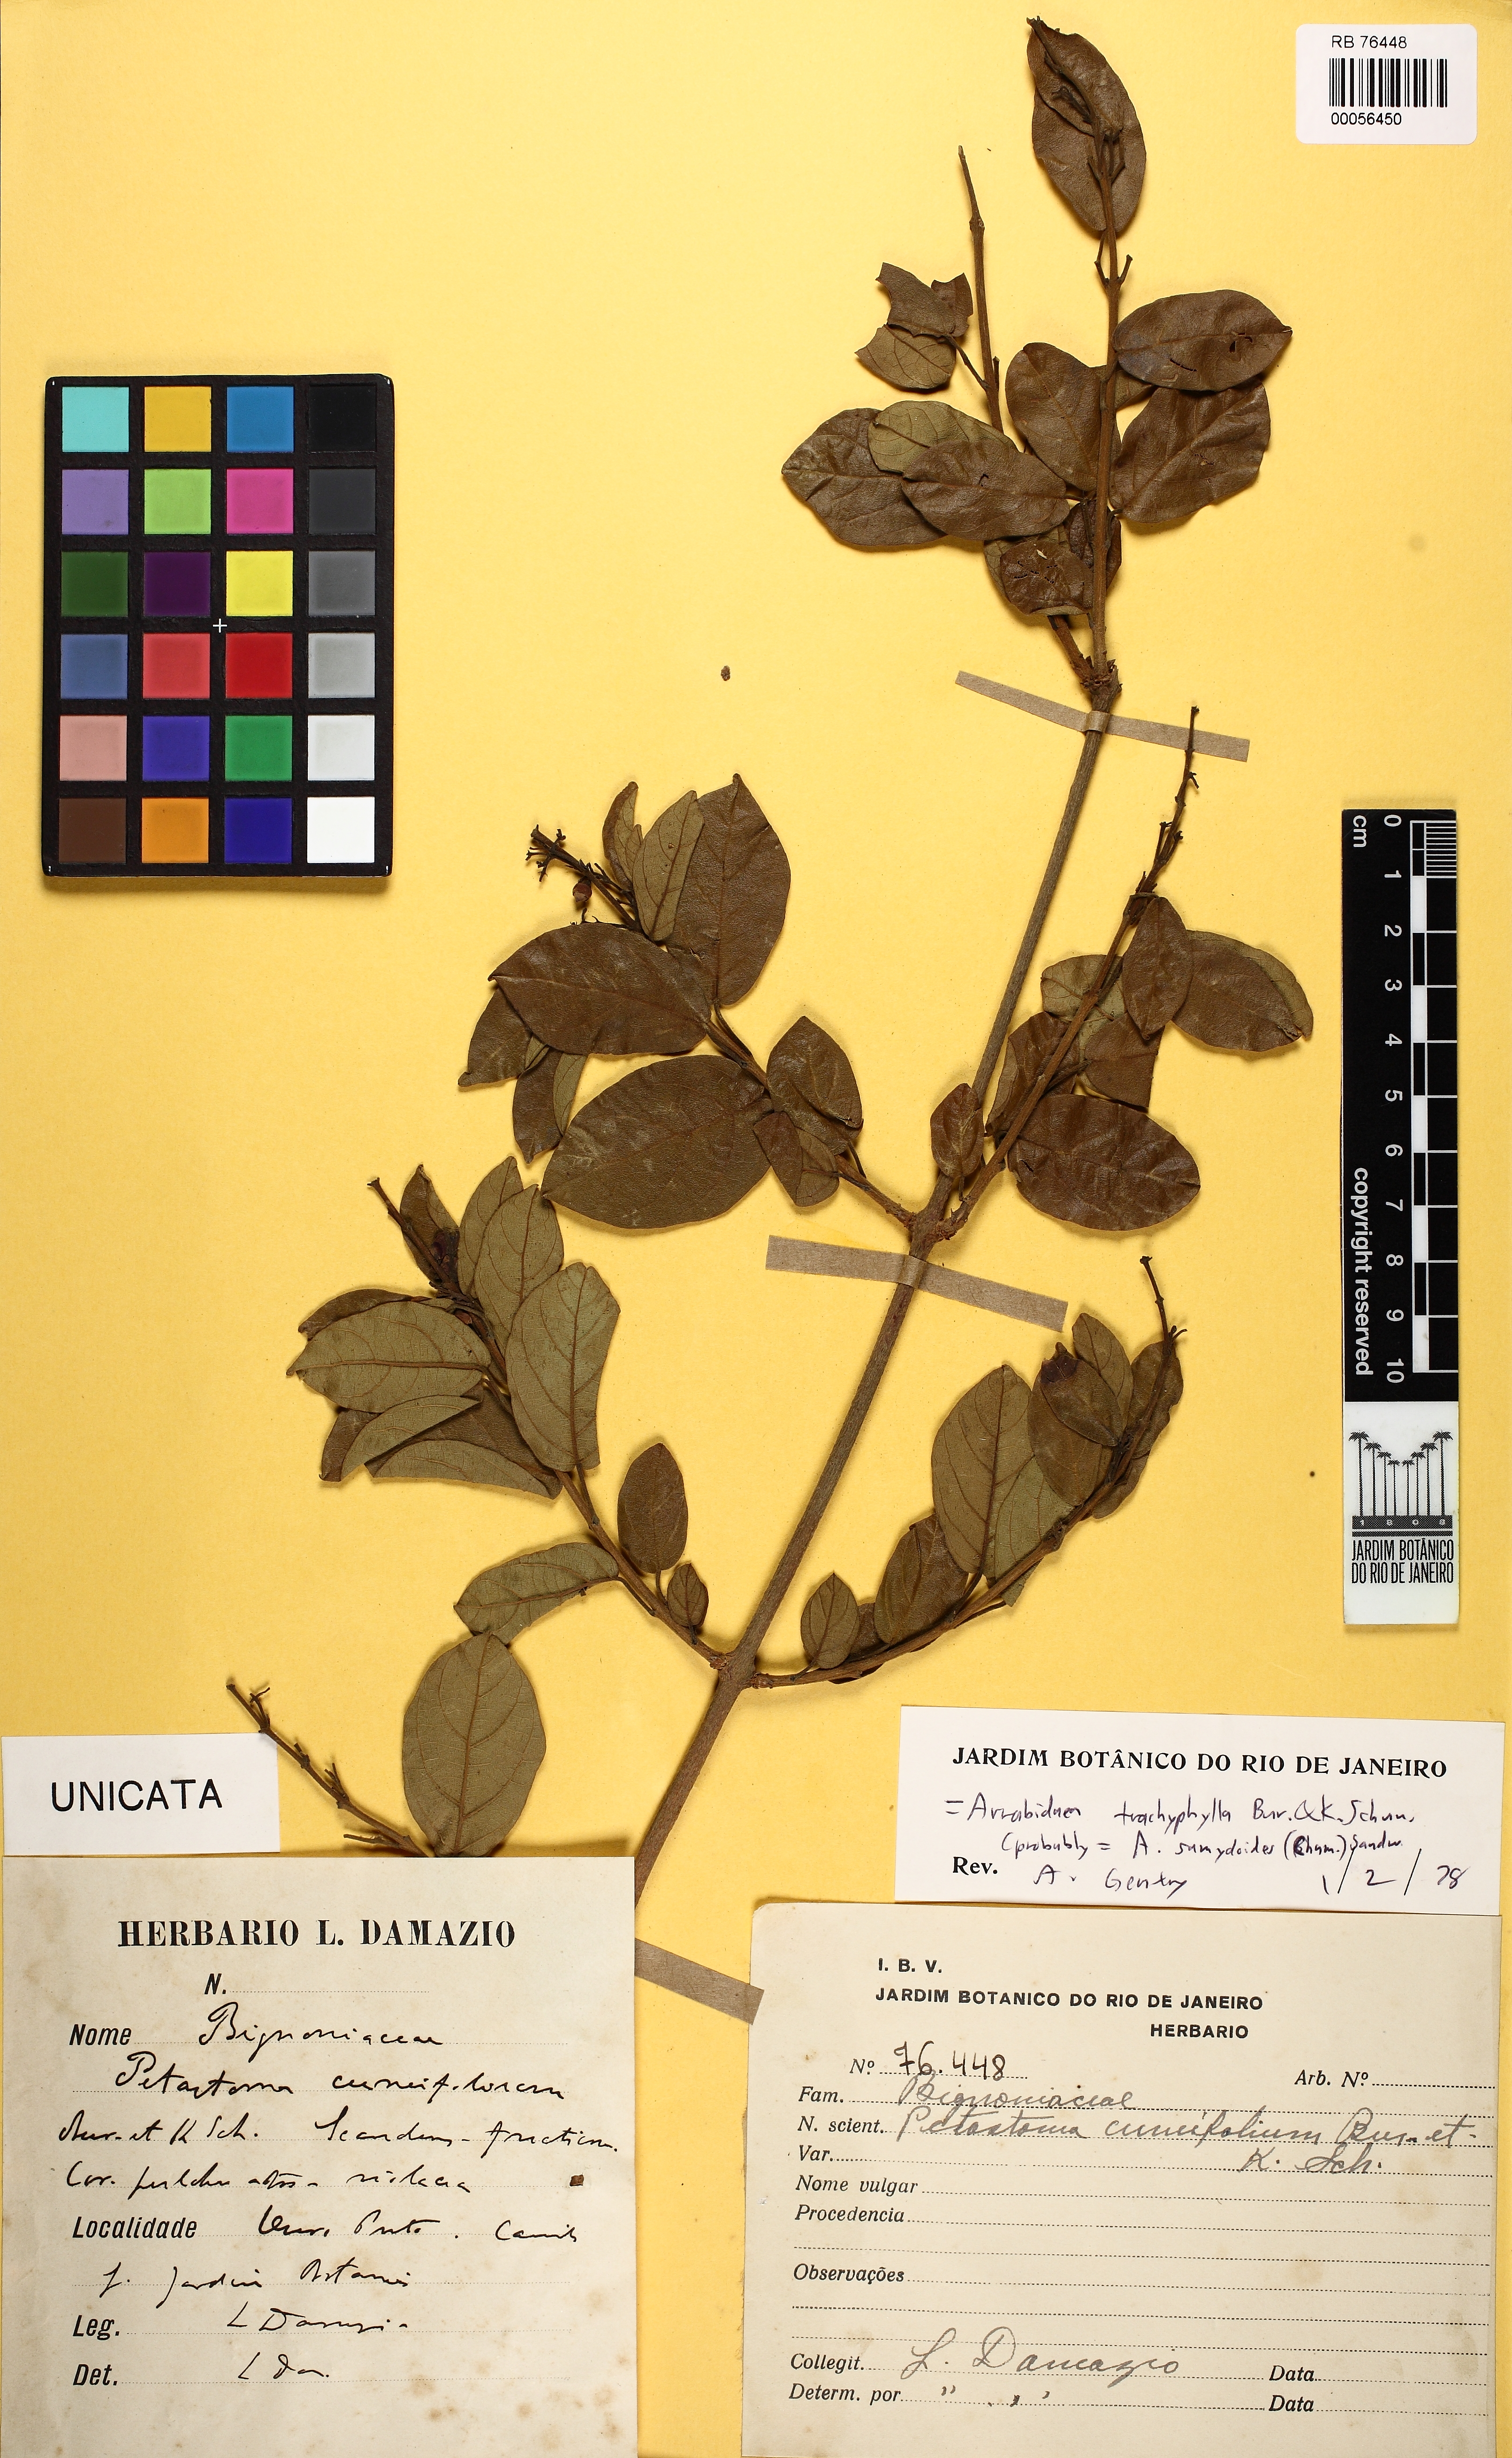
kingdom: Plantae
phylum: Tracheophyta
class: Magnoliopsida
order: Lamiales
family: Bignoniaceae
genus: Fridericia
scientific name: Fridericia samydoides
